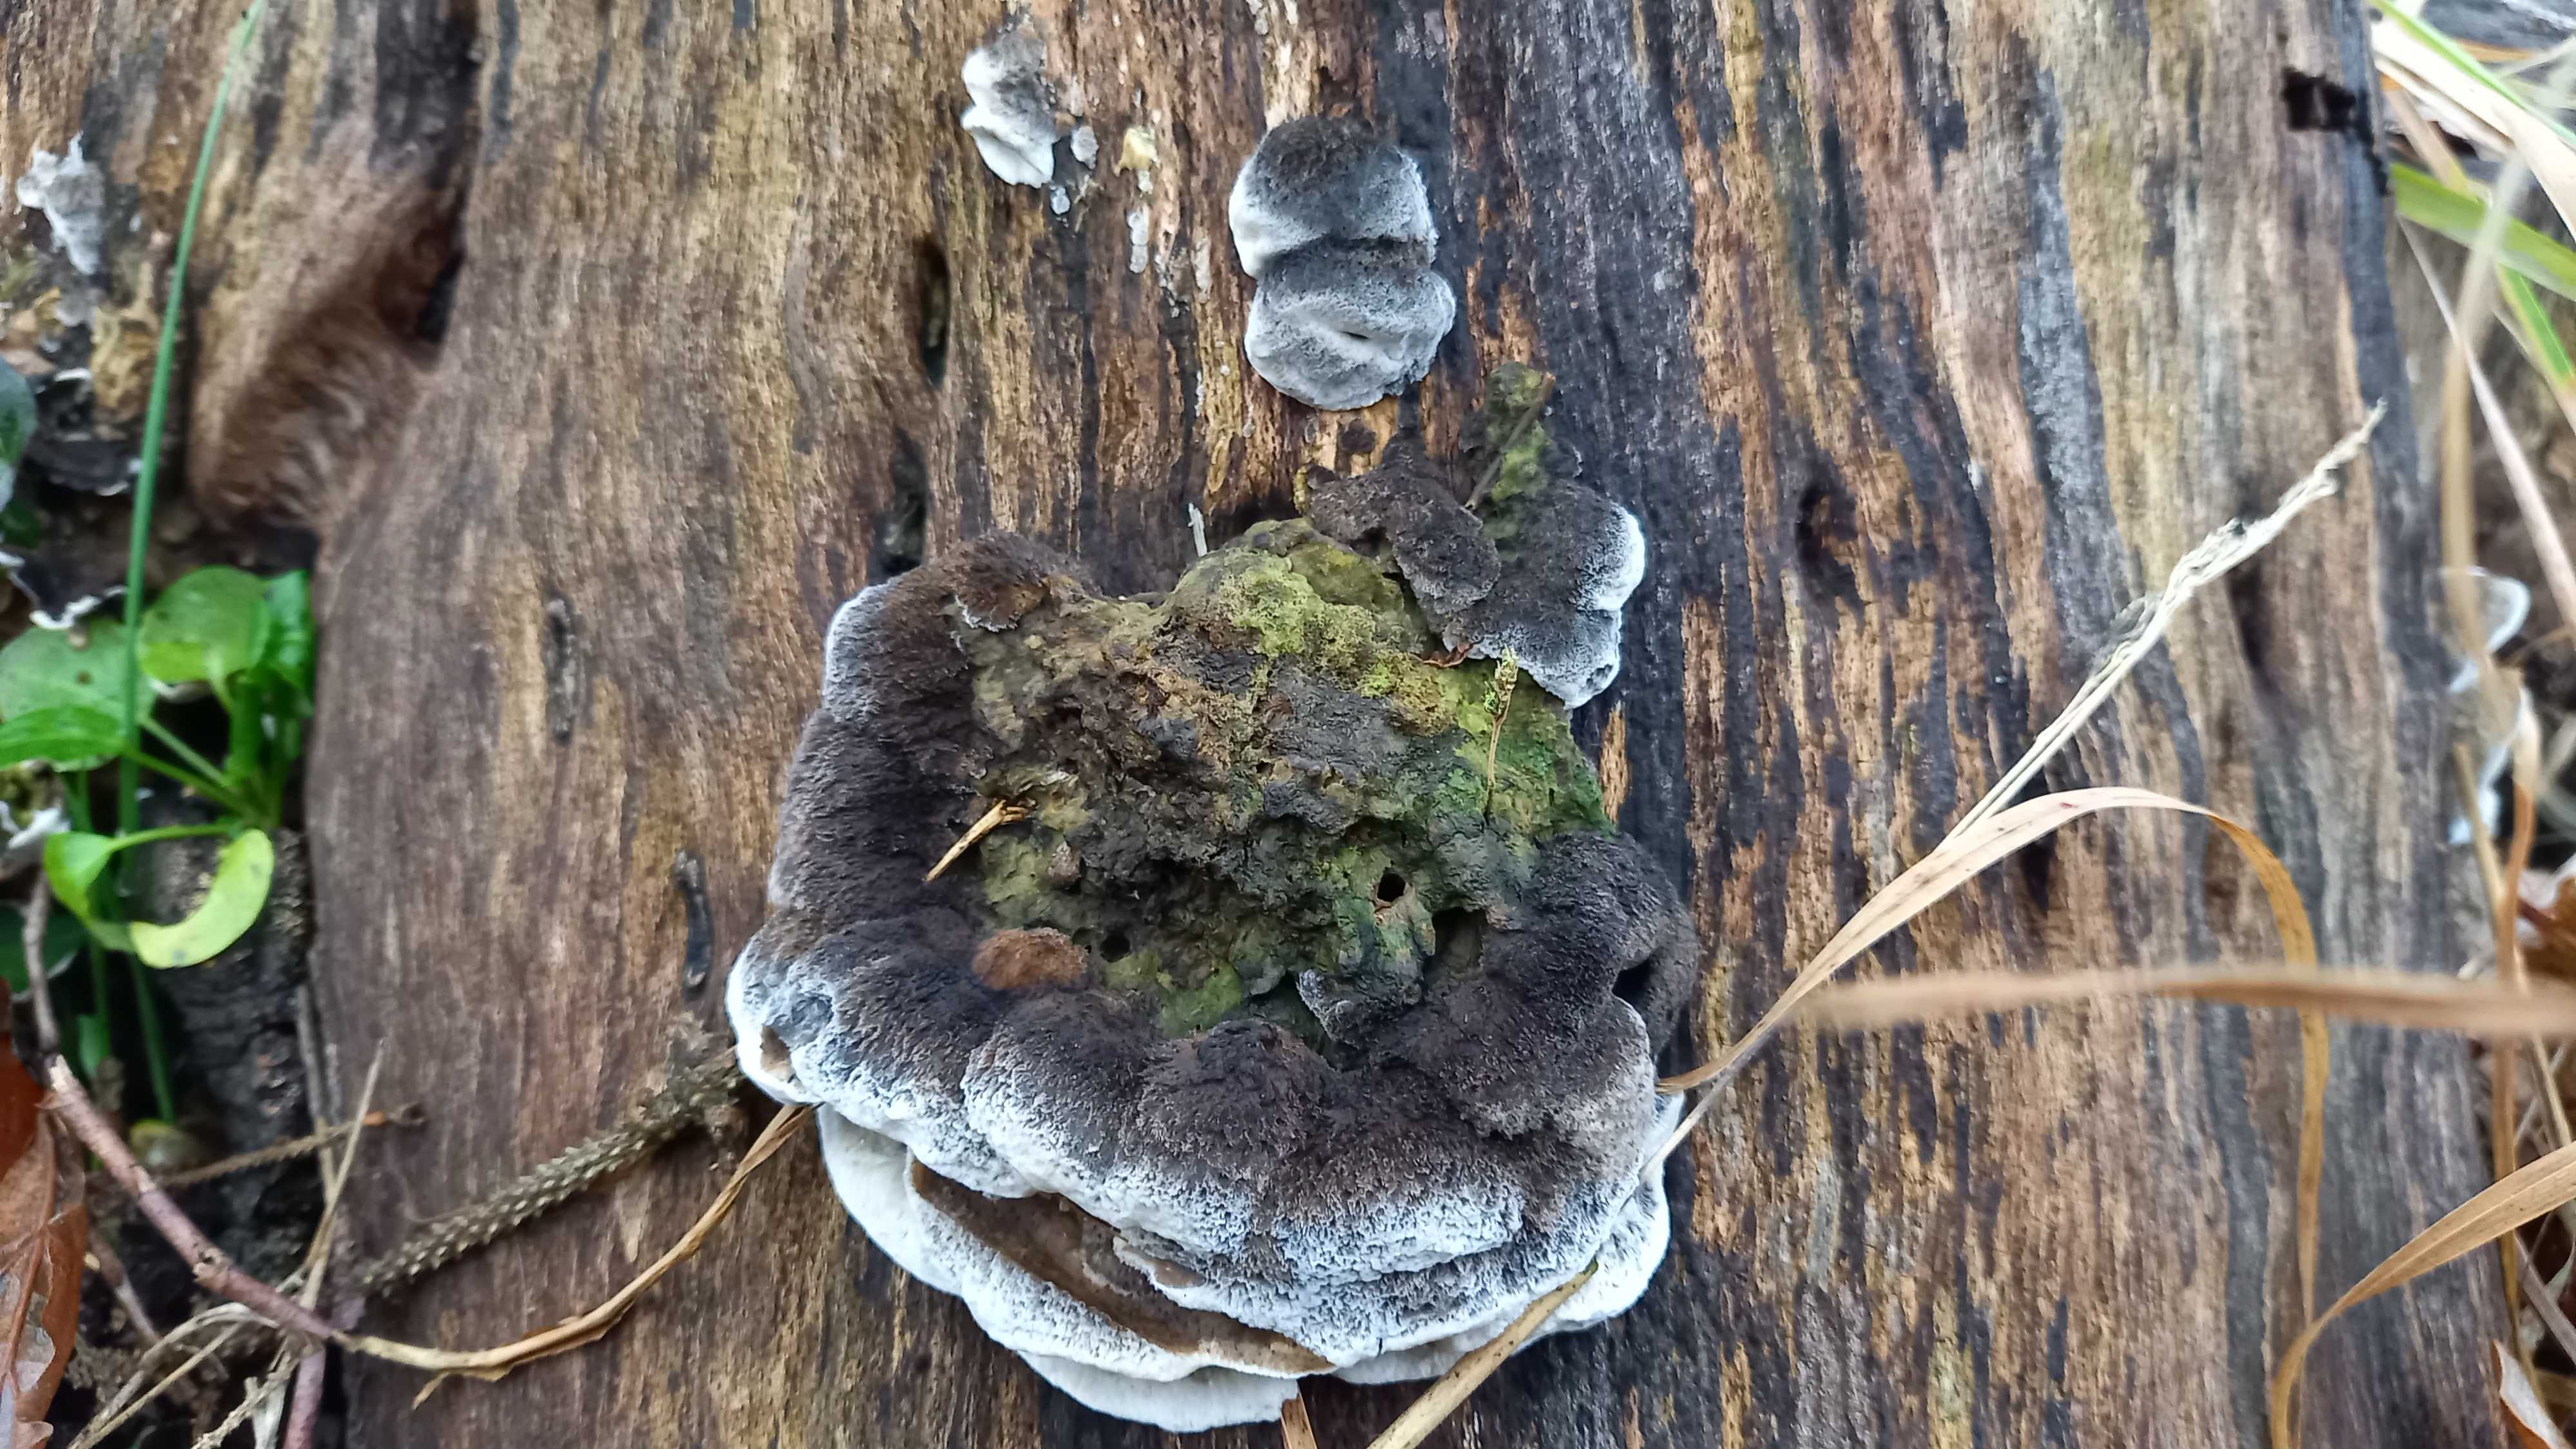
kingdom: Fungi
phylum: Basidiomycota
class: Agaricomycetes
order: Polyporales
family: Phanerochaetaceae
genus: Bjerkandera
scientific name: Bjerkandera adusta
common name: sveden sodporesvamp
